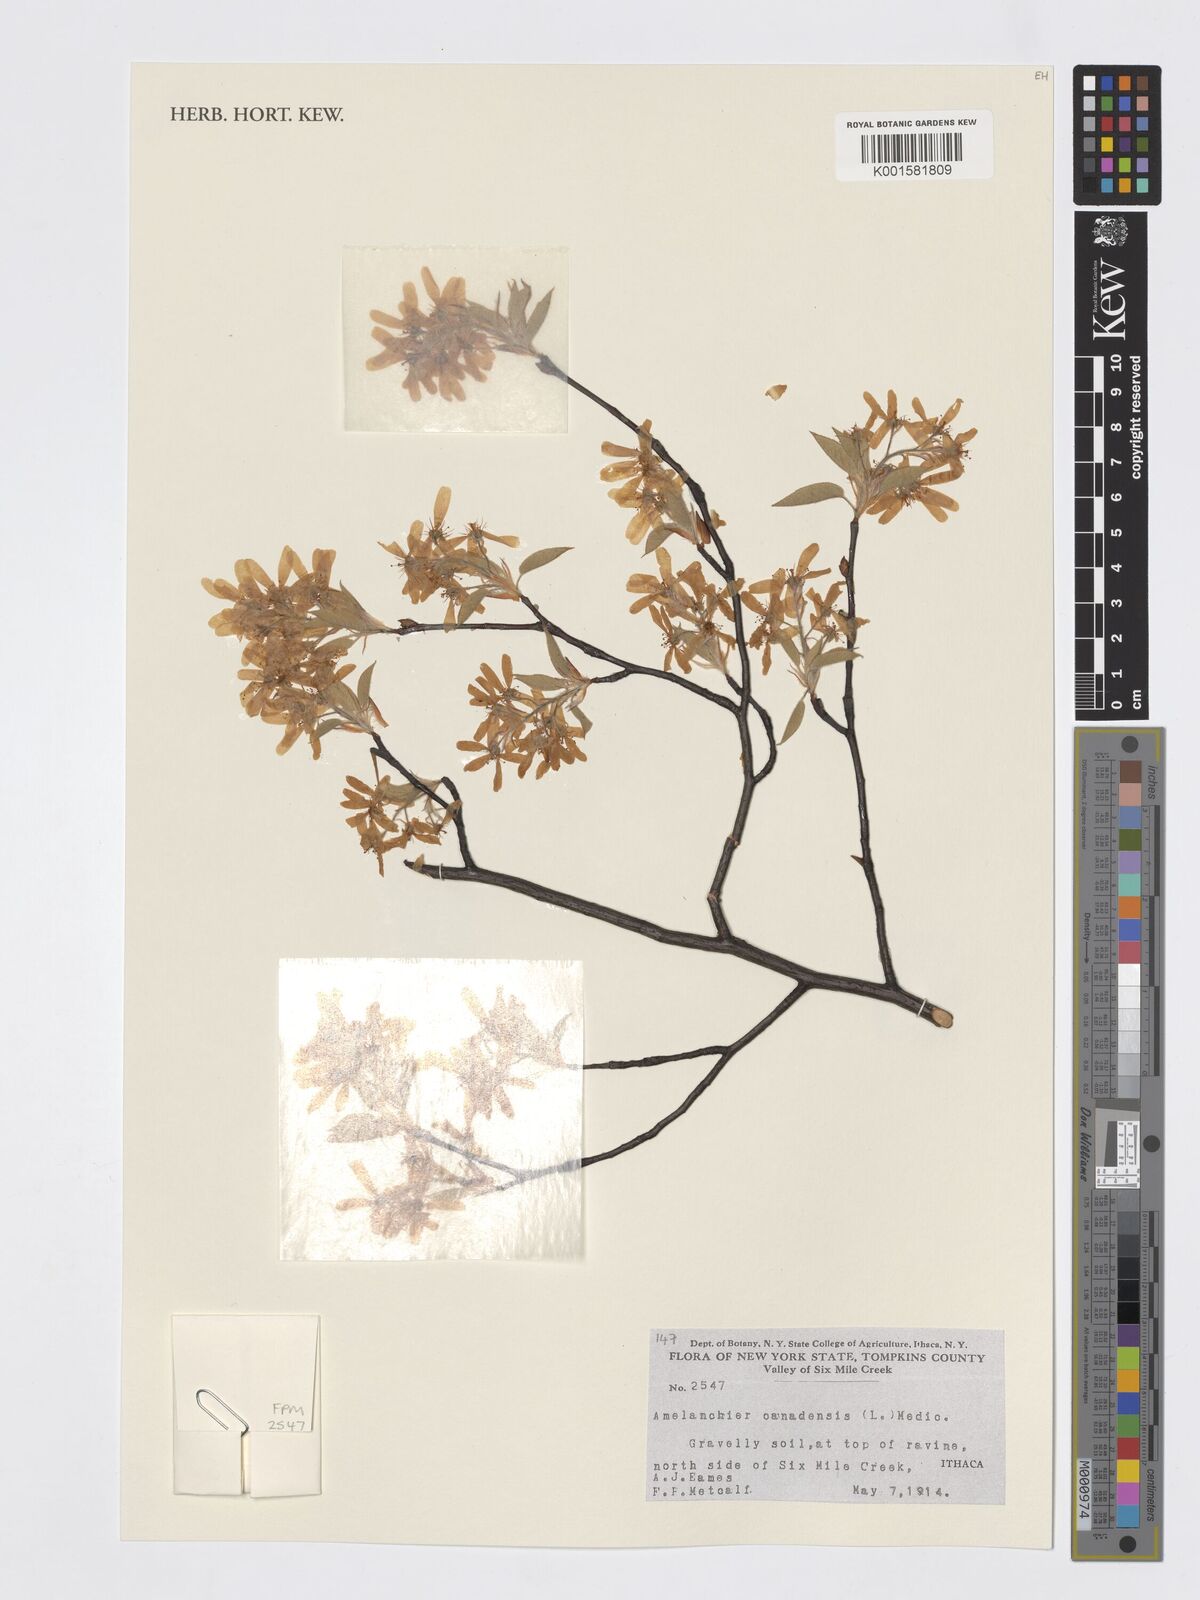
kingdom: Plantae
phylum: Tracheophyta
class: Magnoliopsida
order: Rosales
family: Rosaceae
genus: Amelanchier
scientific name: Amelanchier canadensis
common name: Thicket serviceberry
